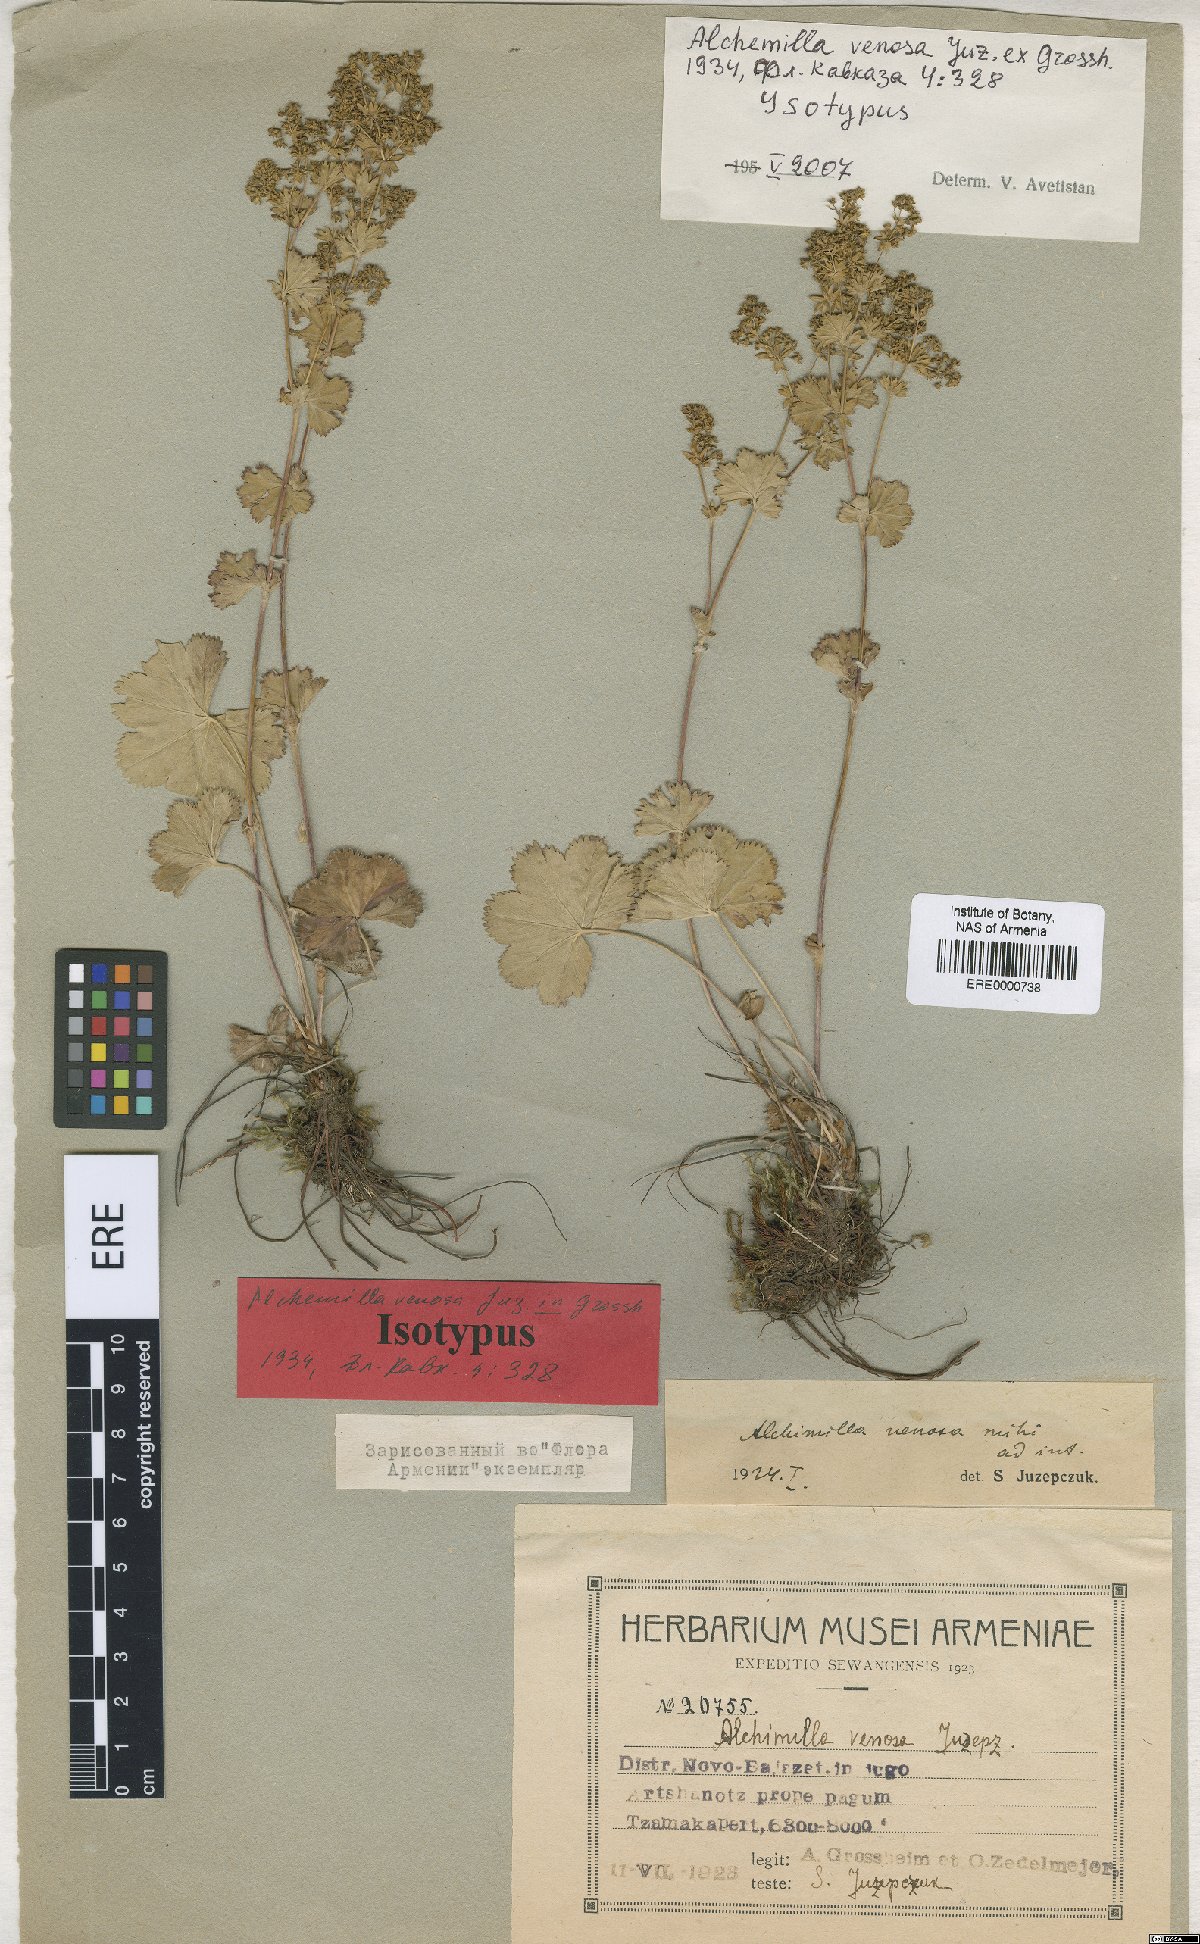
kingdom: Plantae
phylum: Tracheophyta
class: Magnoliopsida
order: Rosales
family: Rosaceae
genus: Alchemilla
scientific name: Alchemilla venosa
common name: Clustered lady's-mantle
